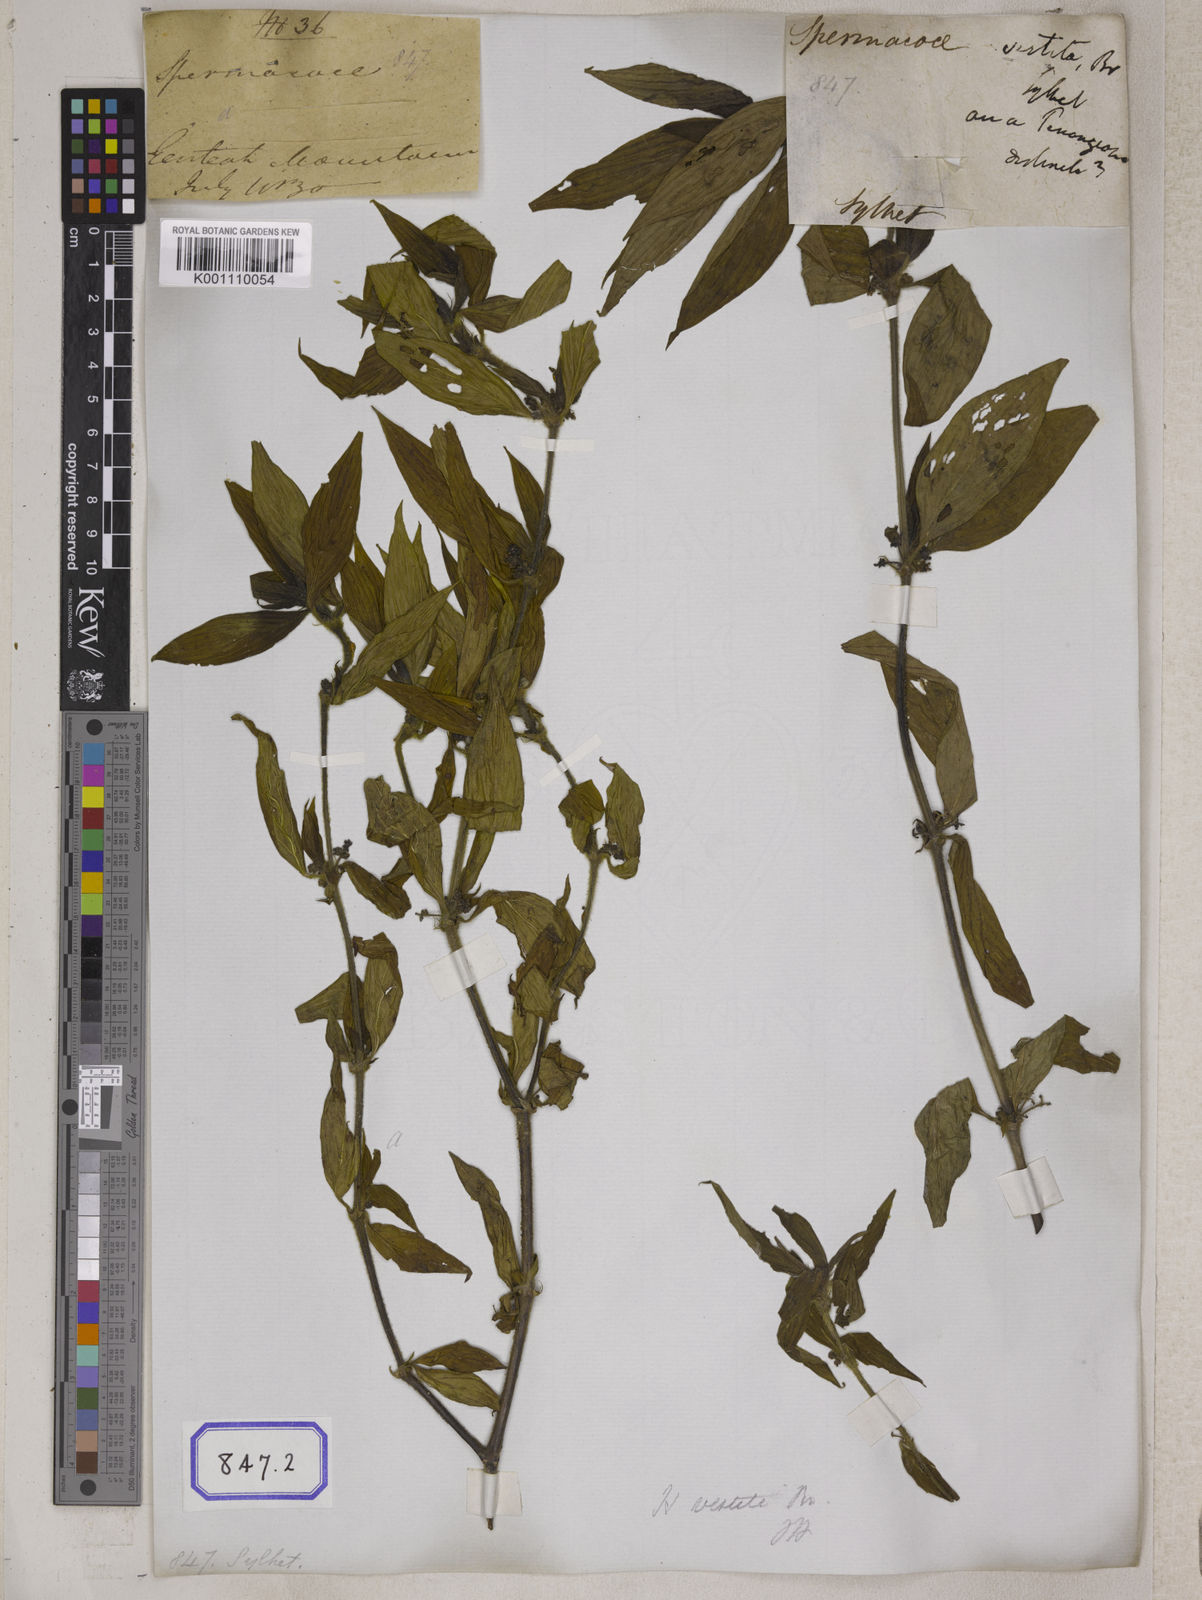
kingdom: Plantae
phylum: Tracheophyta
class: Magnoliopsida
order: Gentianales
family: Rubiaceae
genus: Hedyotis
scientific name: Hedyotis
